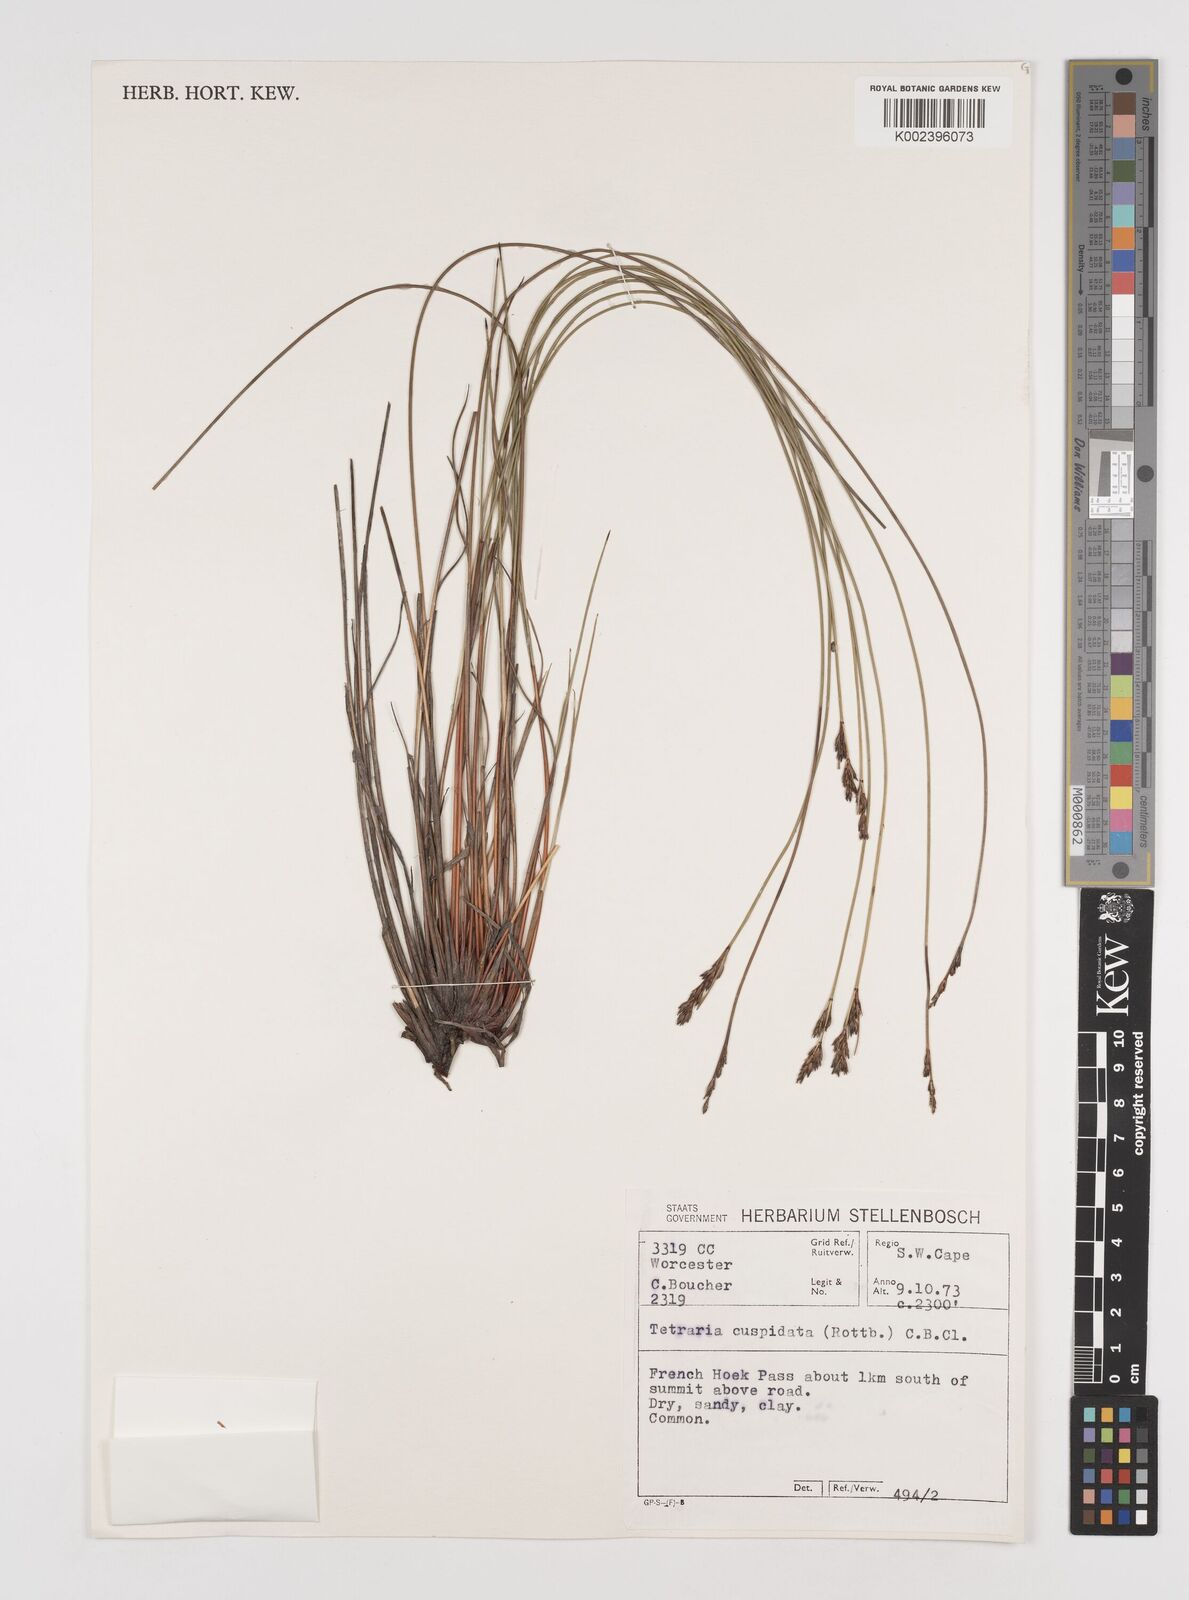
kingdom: Plantae
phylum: Tracheophyta
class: Liliopsida
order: Poales
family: Cyperaceae
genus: Schoenus
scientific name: Schoenus cuspidatus
